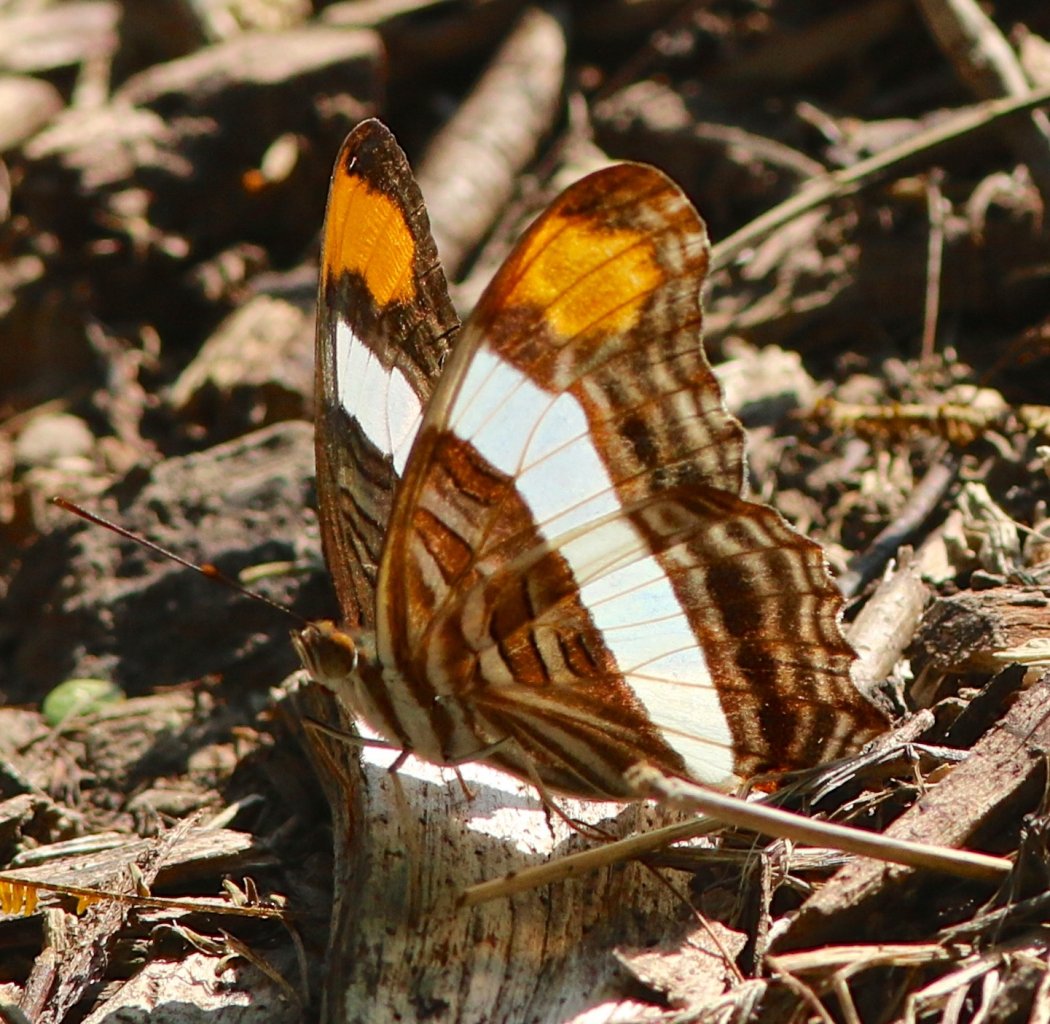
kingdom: Animalia
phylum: Arthropoda
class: Insecta
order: Lepidoptera
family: Nymphalidae
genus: Limenitis
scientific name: Limenitis fessonia
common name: Band-celled Sister
